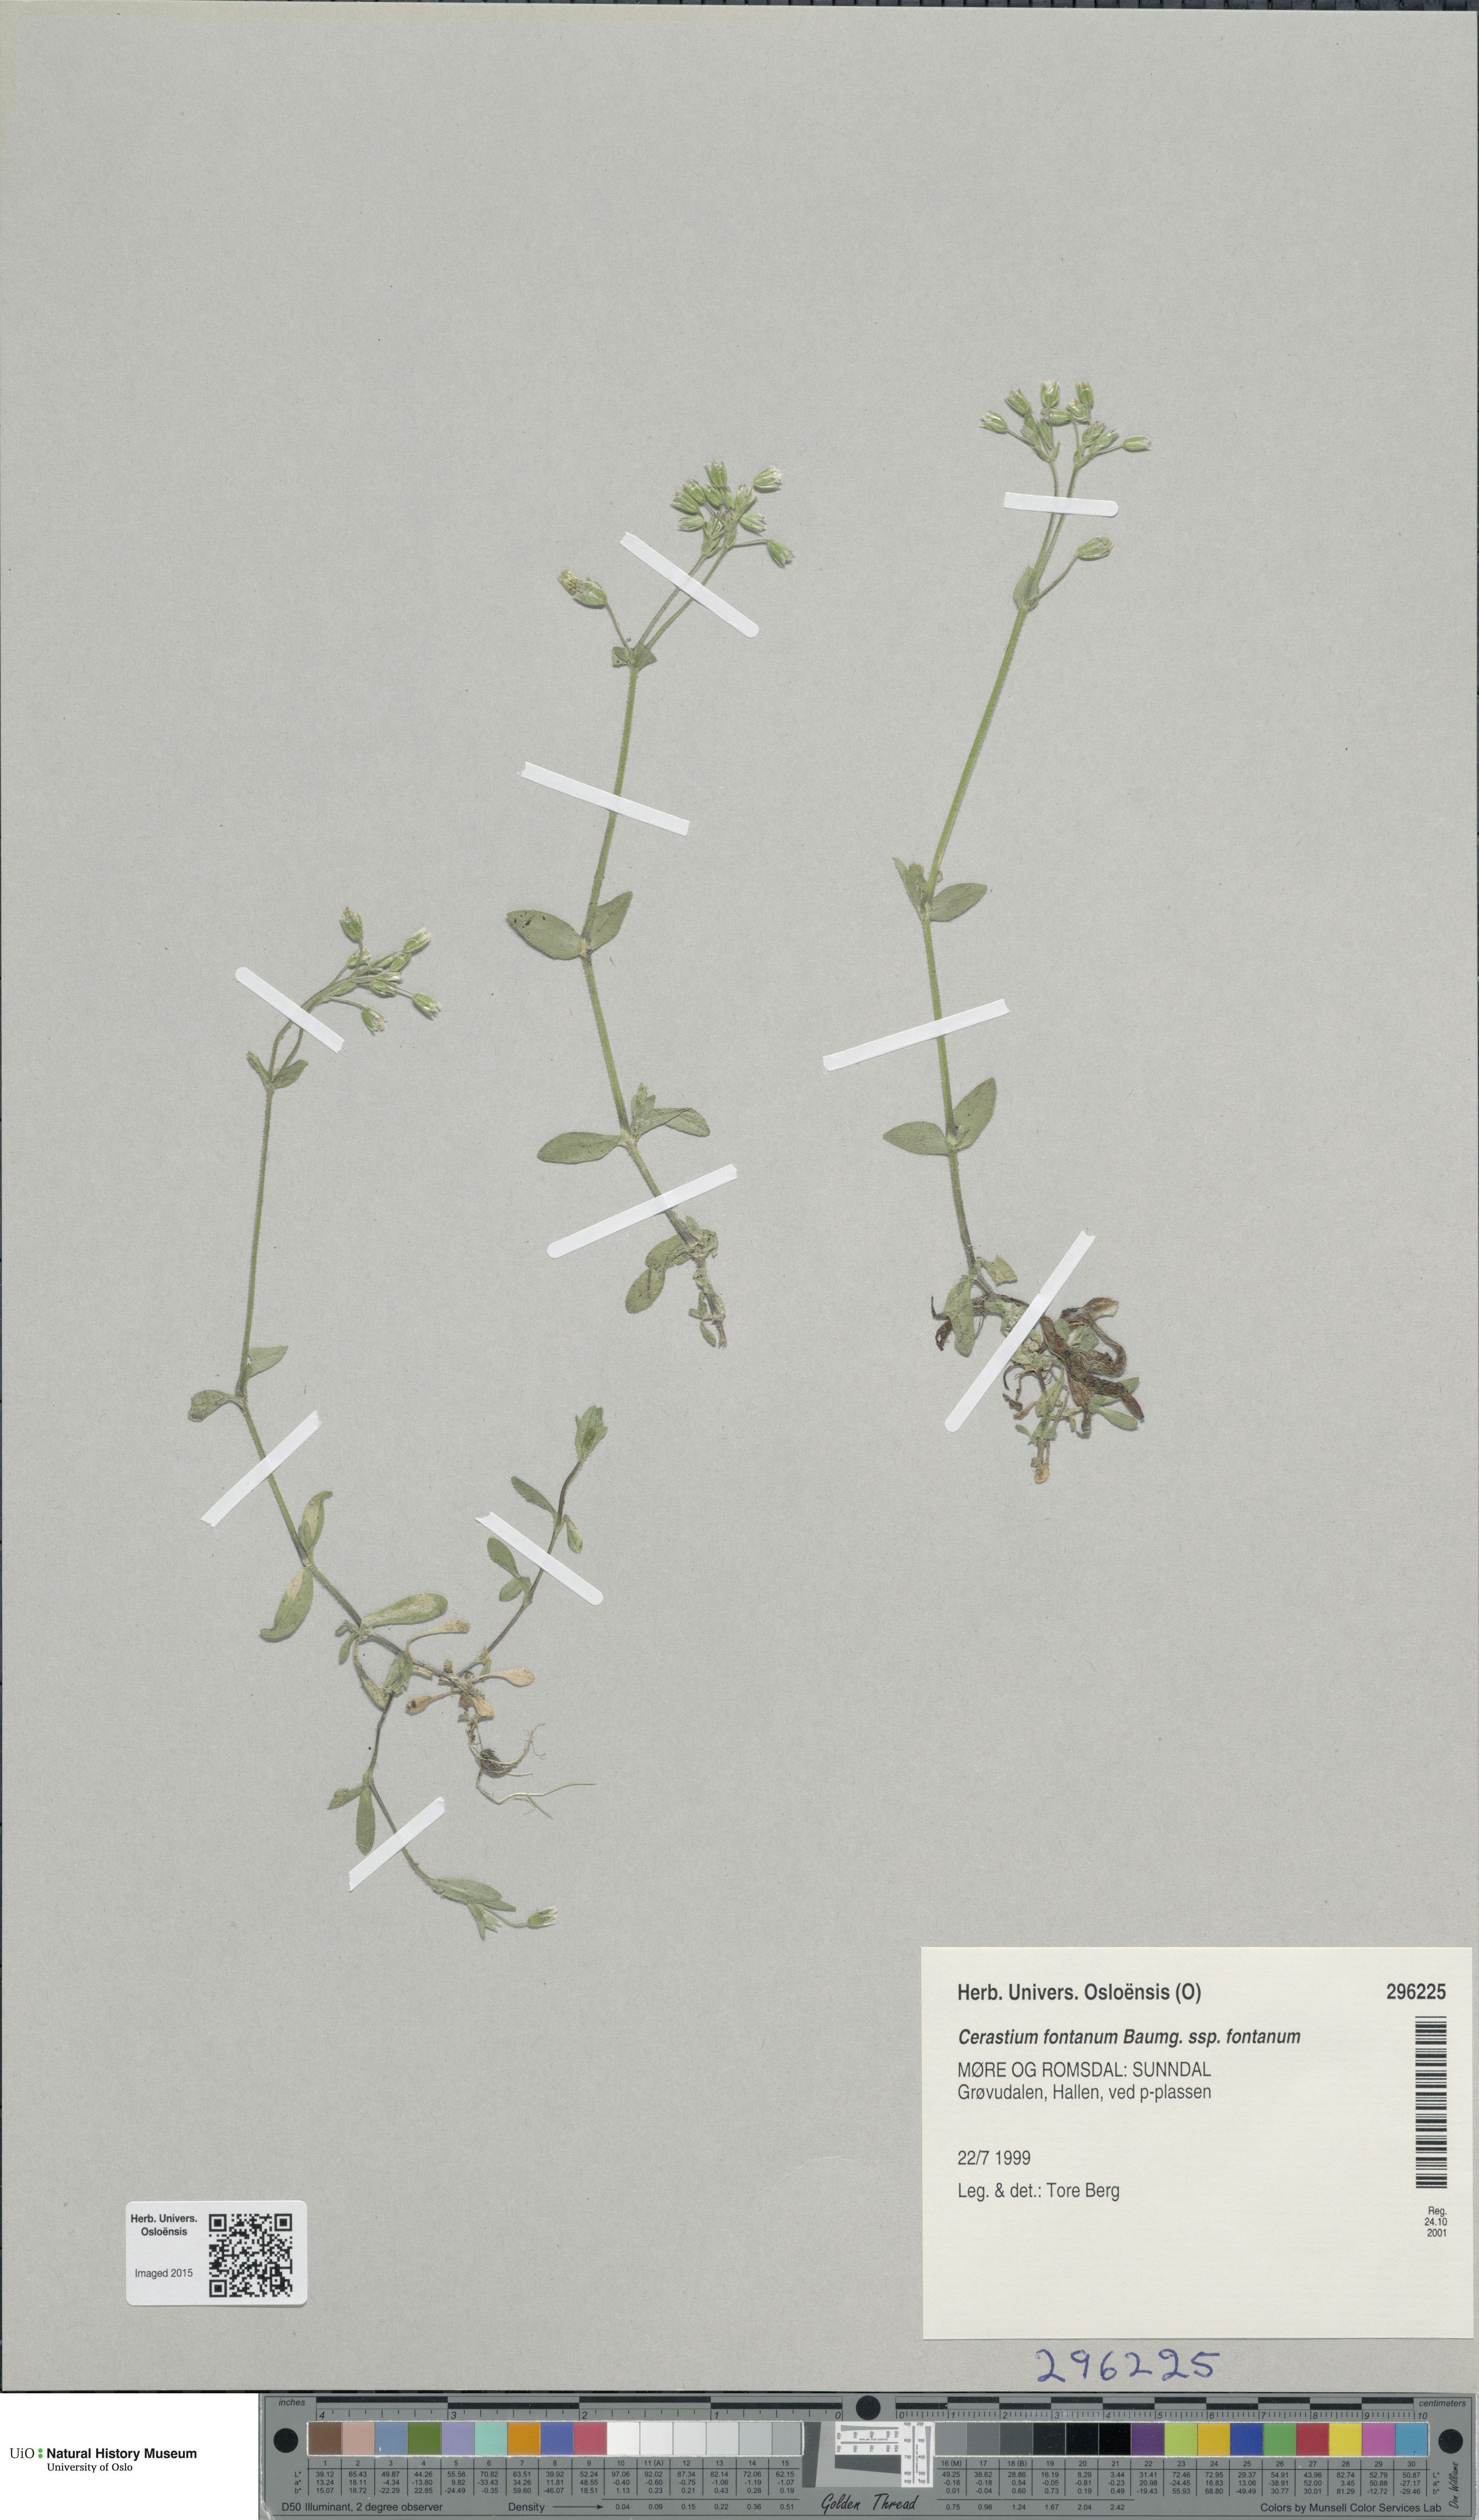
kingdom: Plantae
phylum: Tracheophyta
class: Magnoliopsida
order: Caryophyllales
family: Caryophyllaceae
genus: Cerastium
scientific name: Cerastium fontanum
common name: Common mouse-ear
